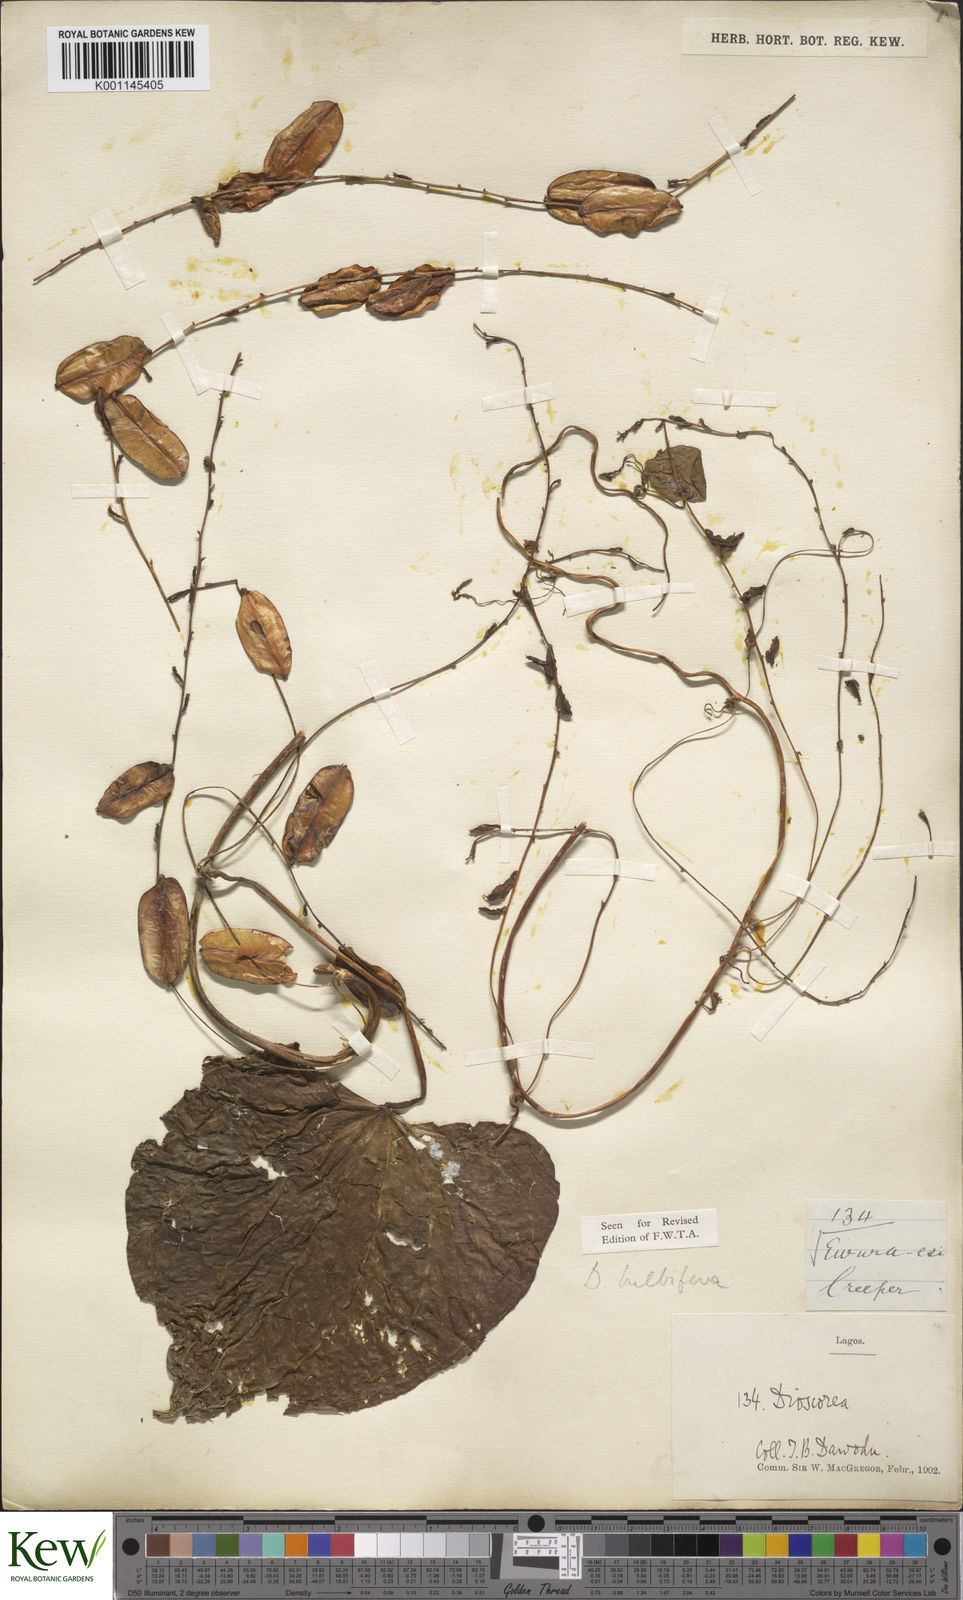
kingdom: Plantae
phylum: Tracheophyta
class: Liliopsida
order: Dioscoreales
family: Dioscoreaceae
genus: Dioscorea
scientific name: Dioscorea bulbifera
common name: Air yam
